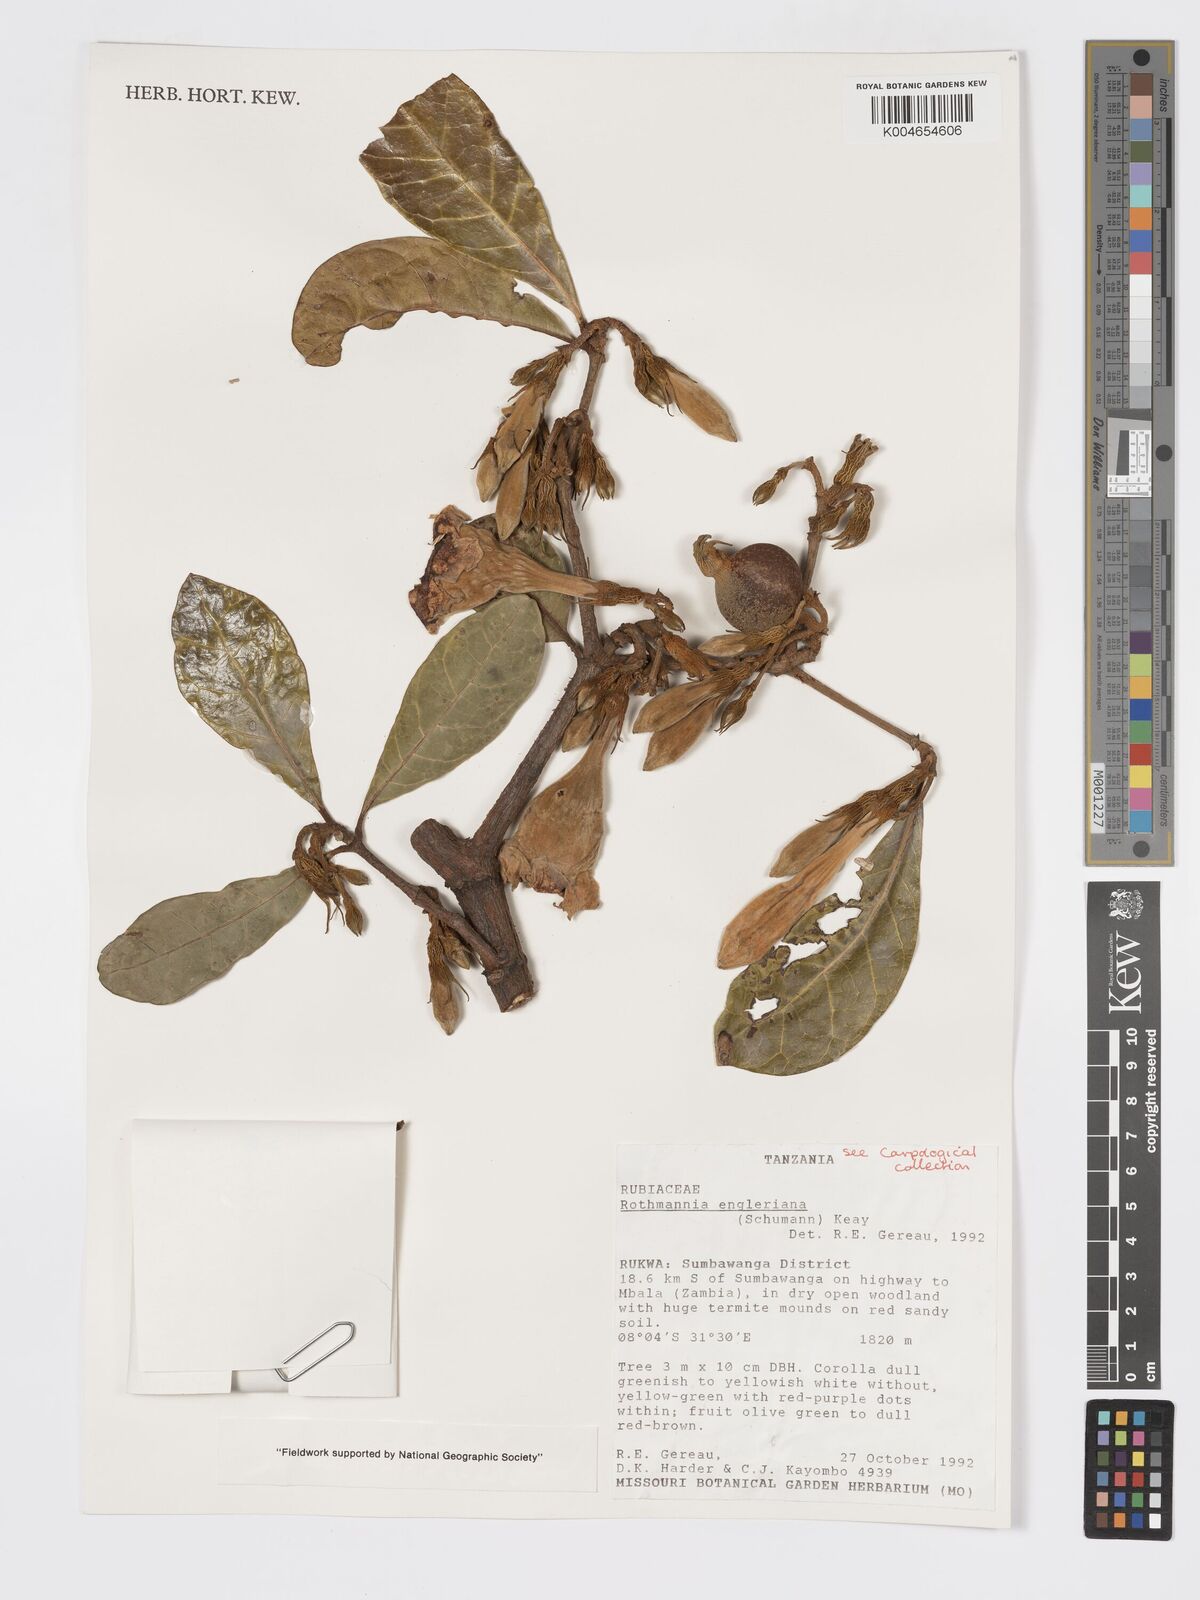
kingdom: Plantae
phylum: Tracheophyta
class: Magnoliopsida
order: Gentianales
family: Rubiaceae
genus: Rothmannia
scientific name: Rothmannia engleriana
